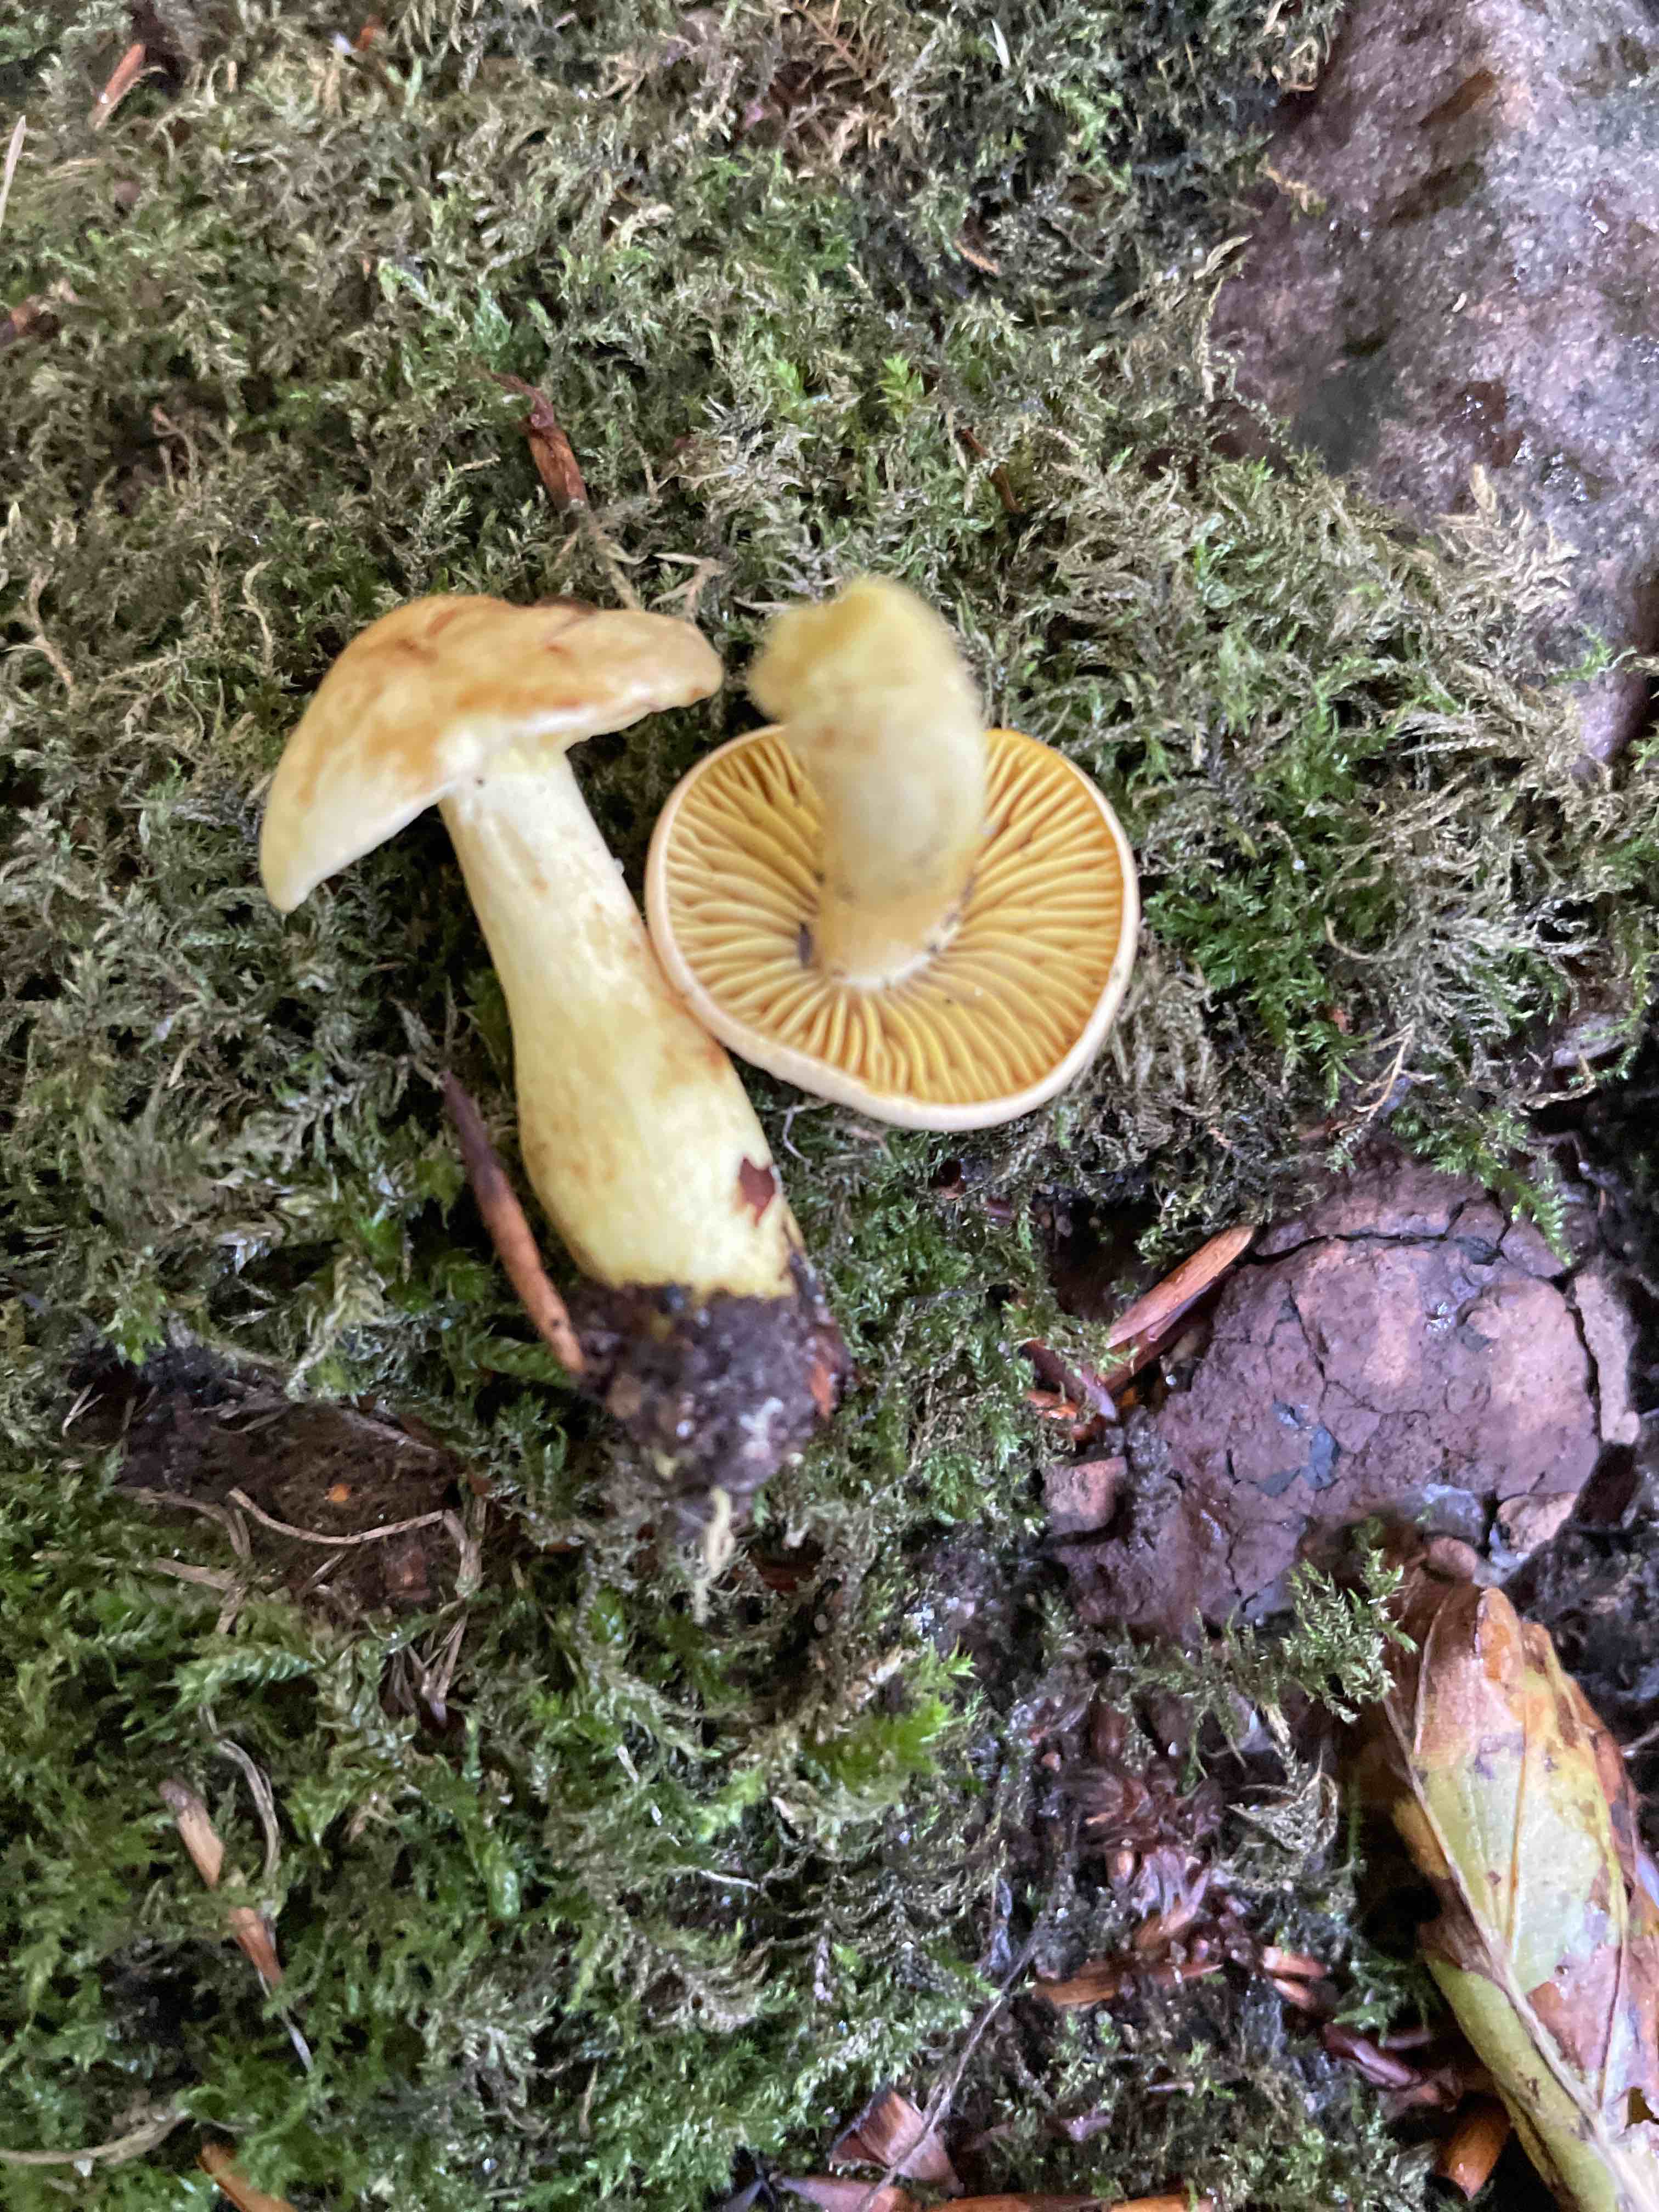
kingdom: Fungi
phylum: Basidiomycota
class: Agaricomycetes
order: Agaricales
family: Tricholomataceae
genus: Tricholoma
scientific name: Tricholoma sulphureum
